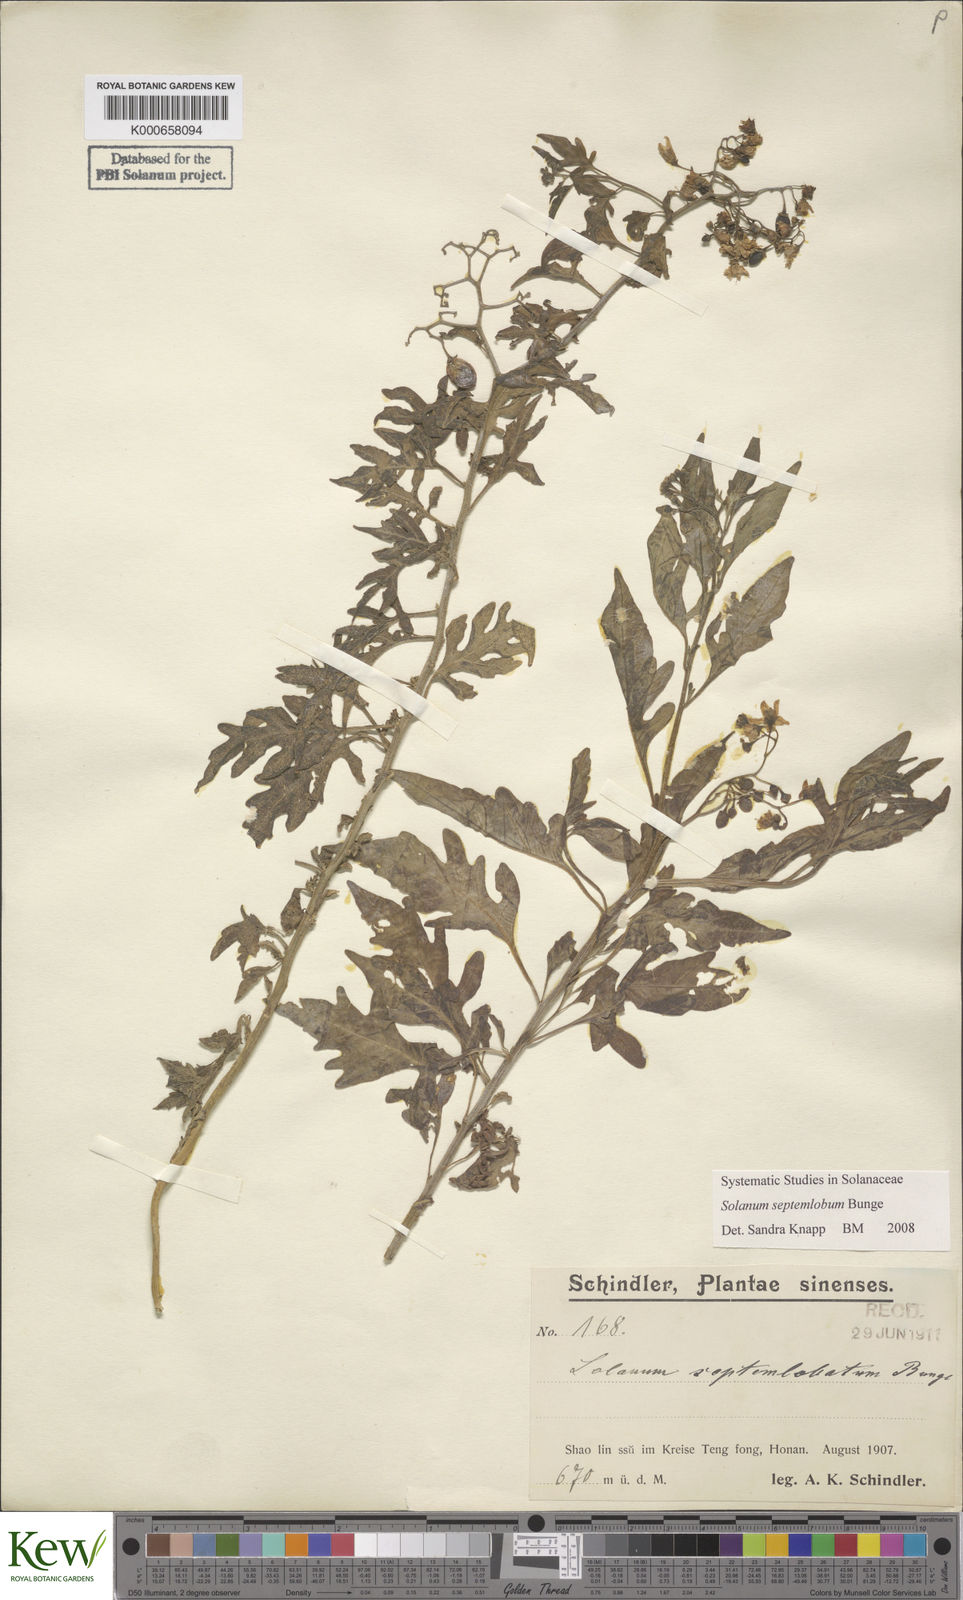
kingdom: Plantae
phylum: Tracheophyta
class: Magnoliopsida
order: Solanales
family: Solanaceae
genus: Solanum
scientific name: Solanum septemlobum
